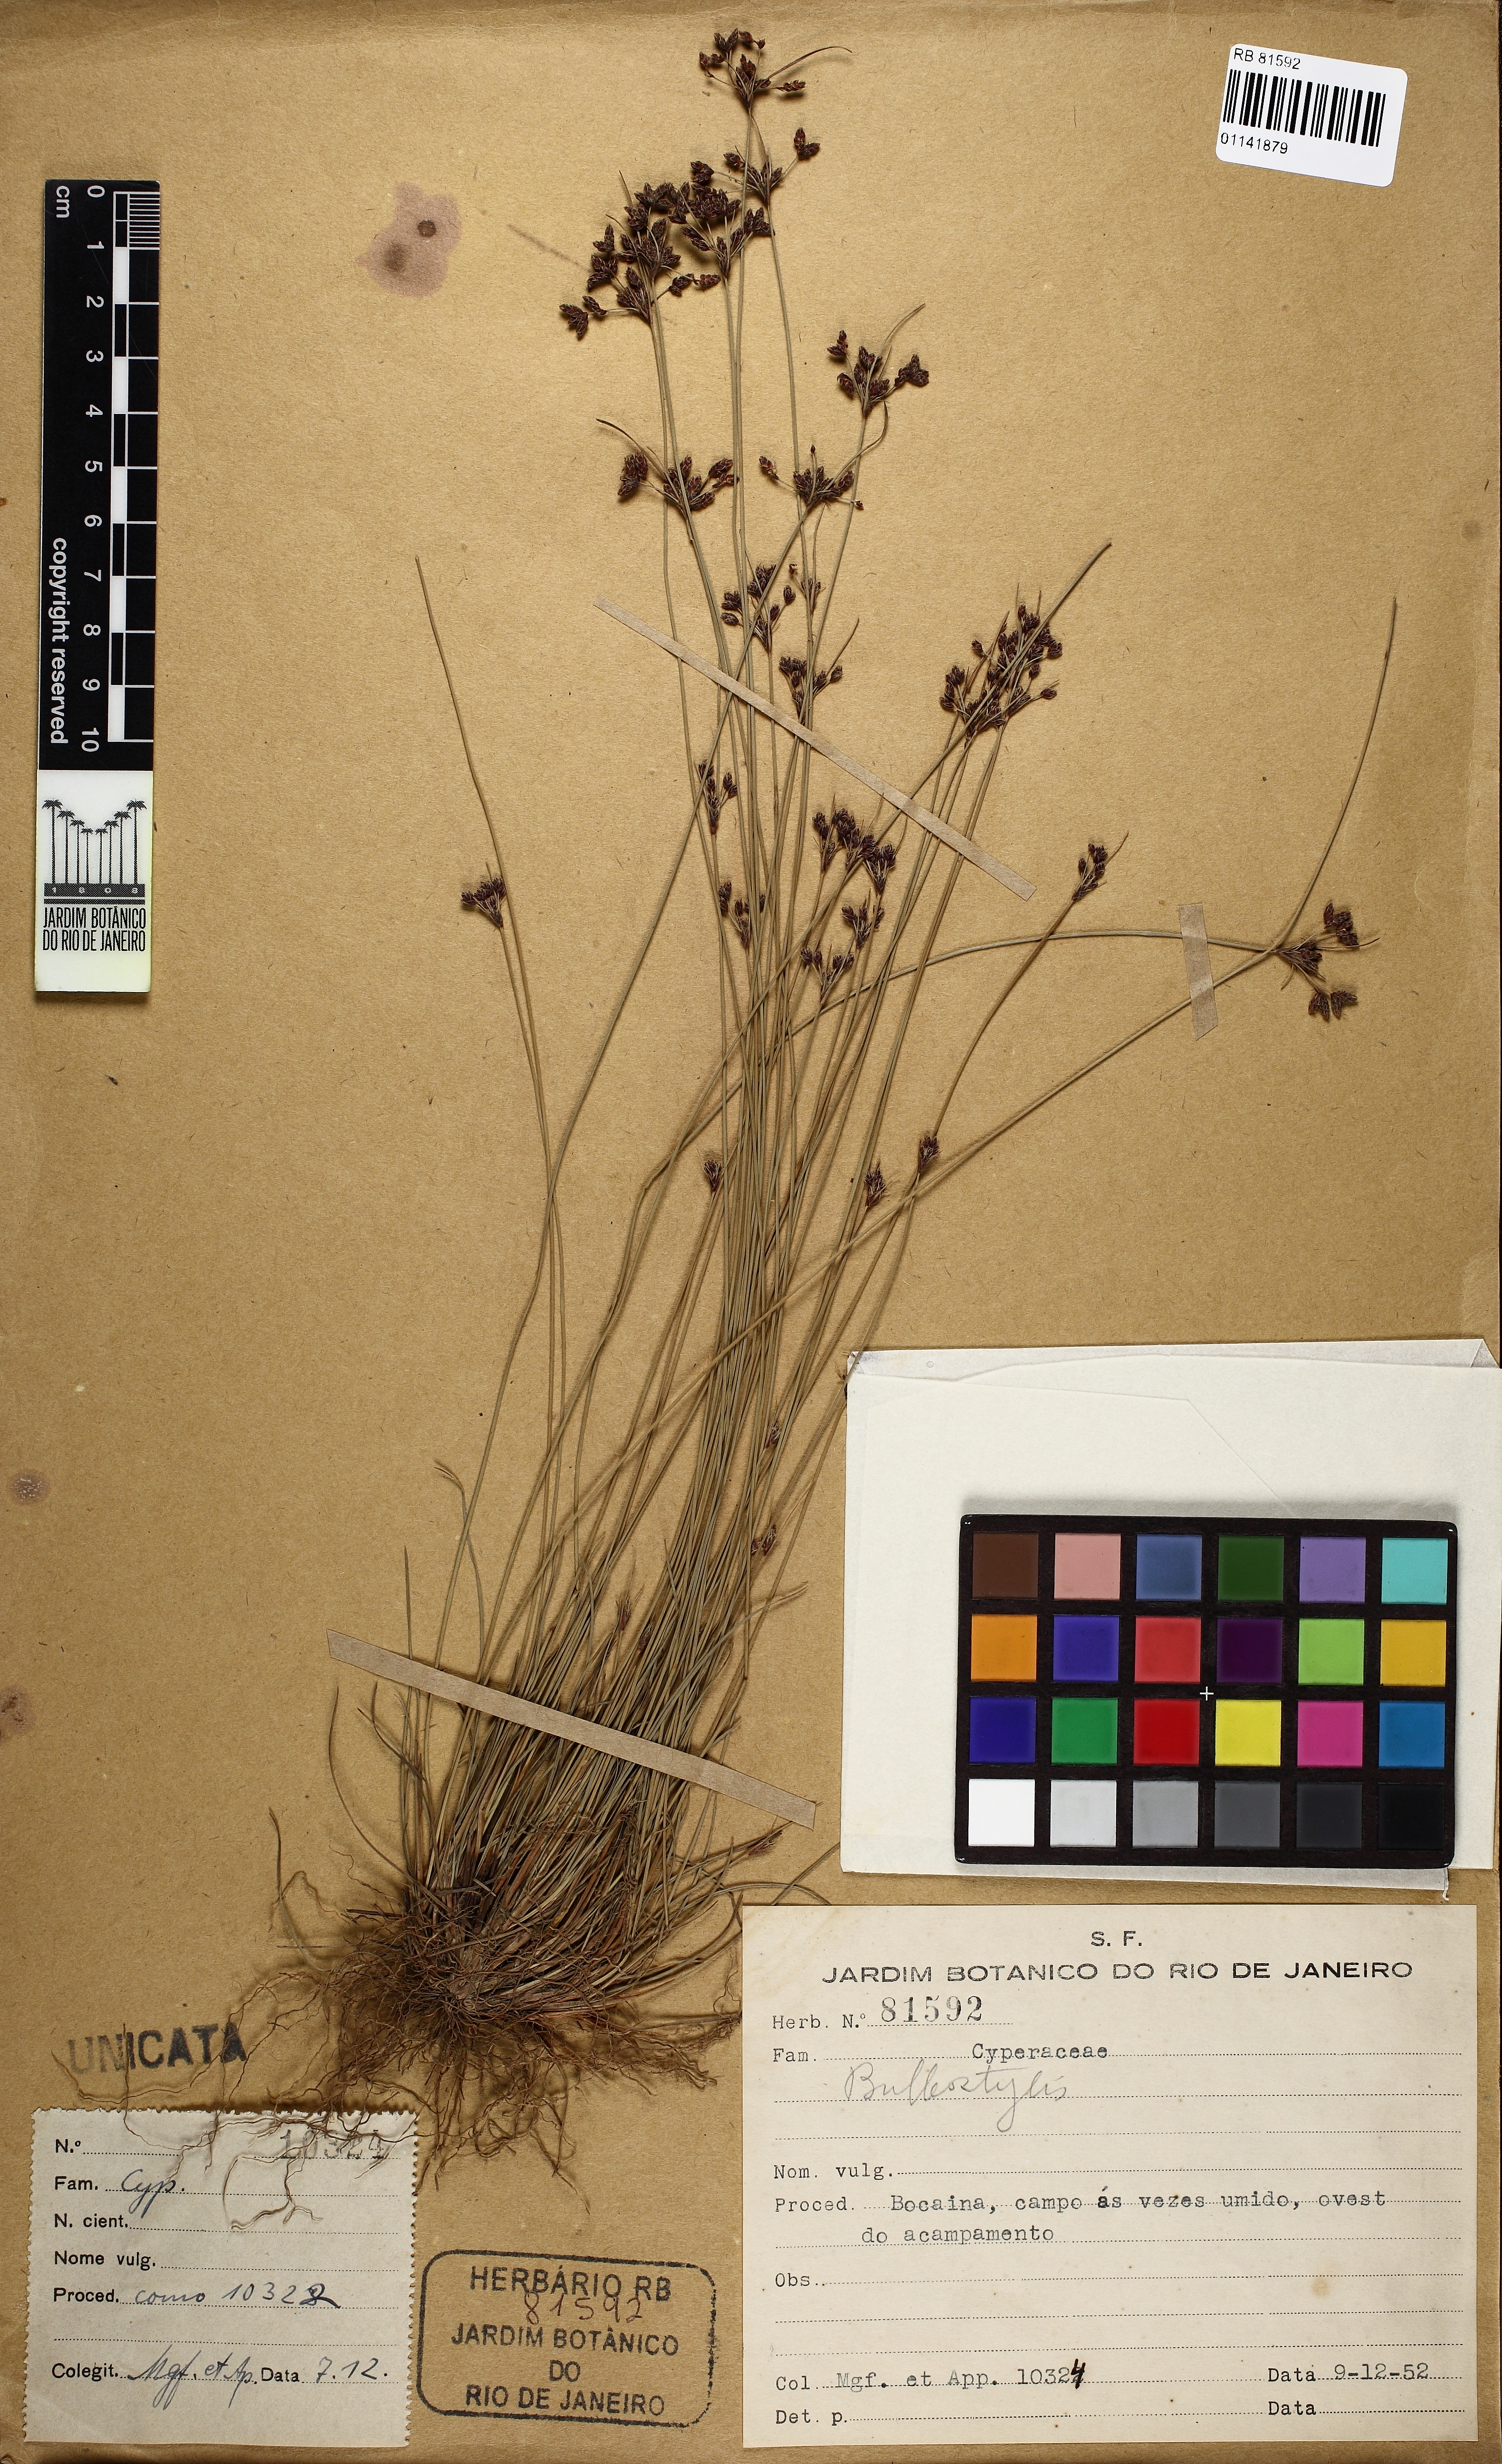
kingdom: Plantae
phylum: Tracheophyta
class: Liliopsida
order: Poales
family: Cyperaceae
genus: Bulbostylis
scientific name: Bulbostylis wanderleyana
